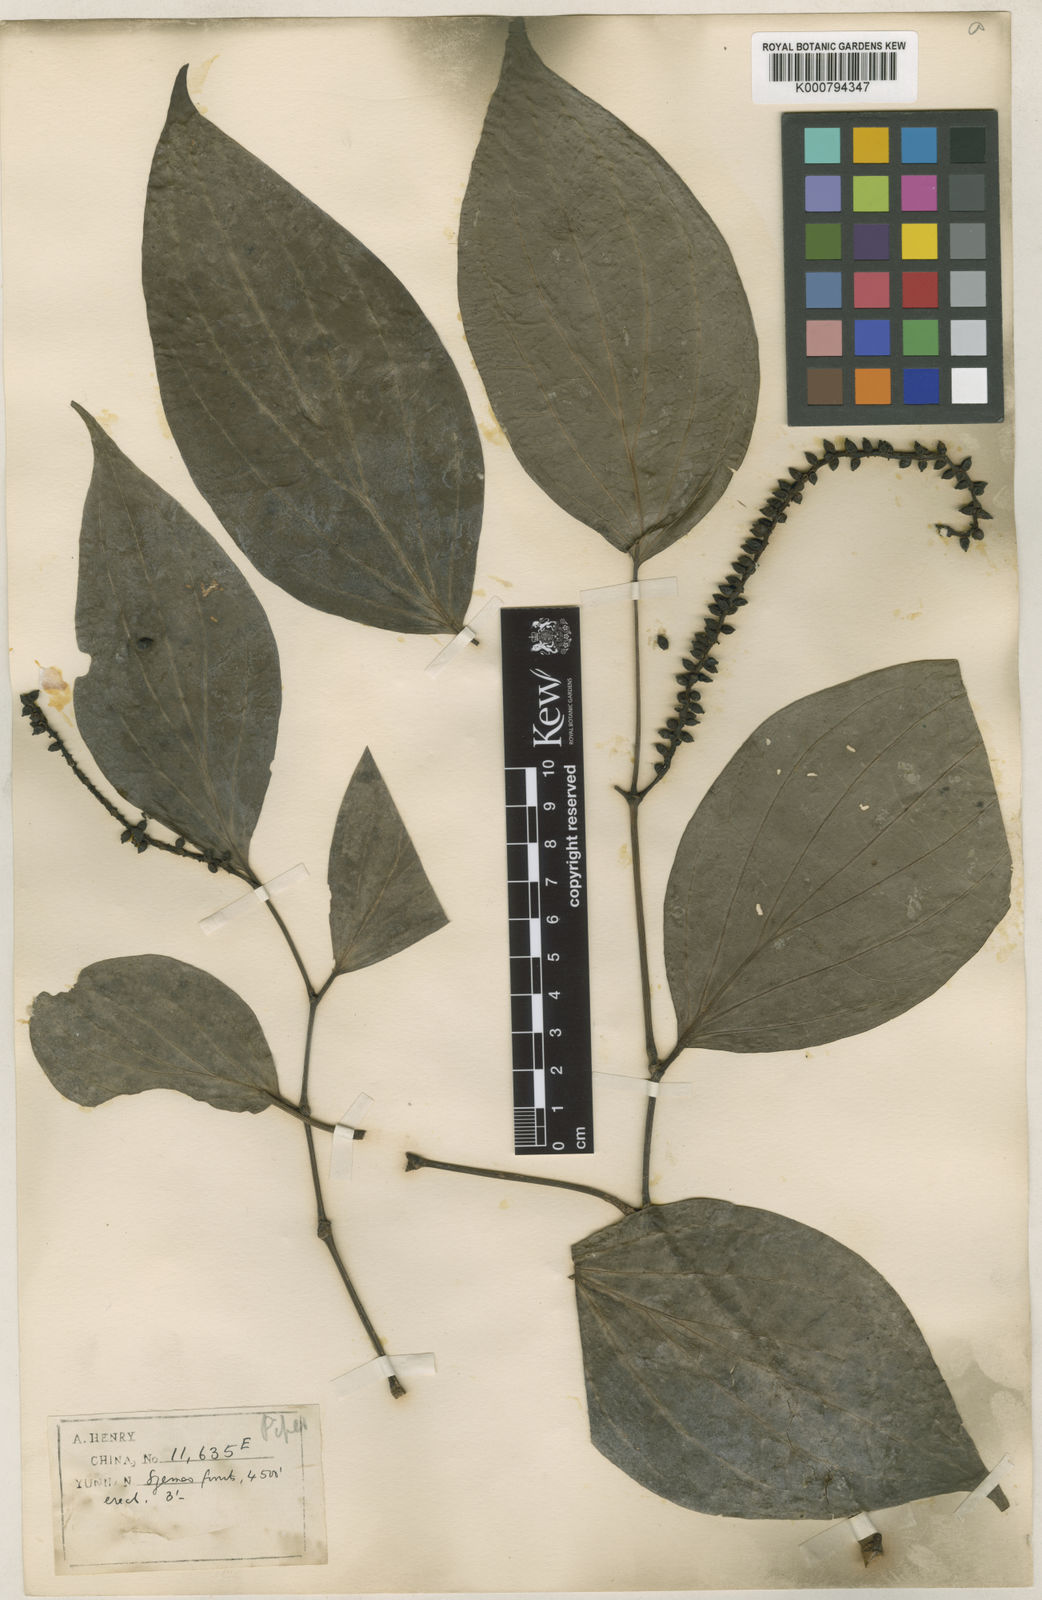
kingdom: Plantae
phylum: Tracheophyta
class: Magnoliopsida
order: Piperales
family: Piperaceae
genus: Piper
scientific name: Piper polysyphonum
